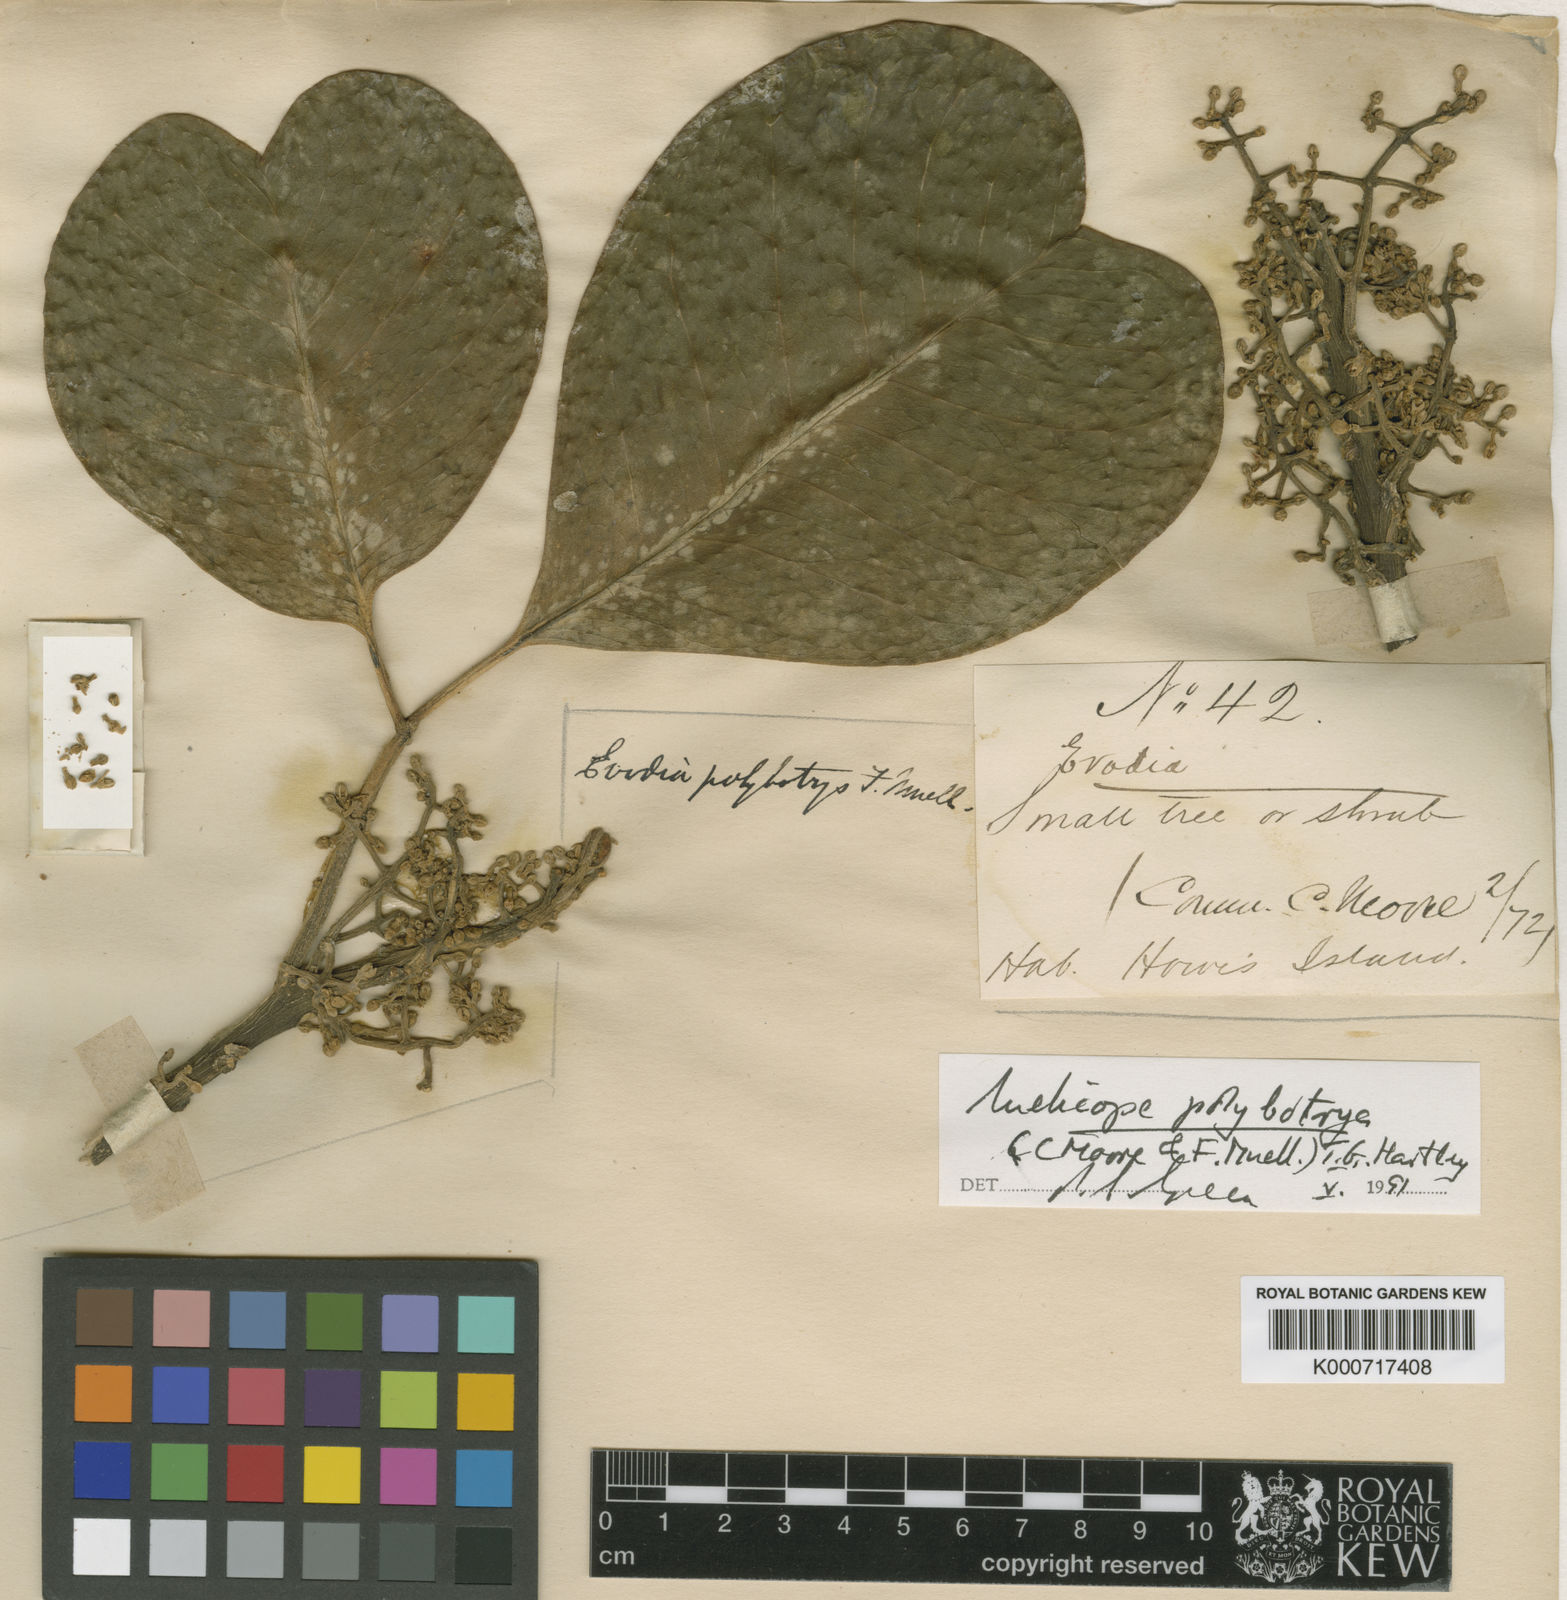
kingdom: Plantae
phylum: Tracheophyta
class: Magnoliopsida
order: Sapindales
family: Rutaceae
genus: Melicope
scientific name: Melicope
